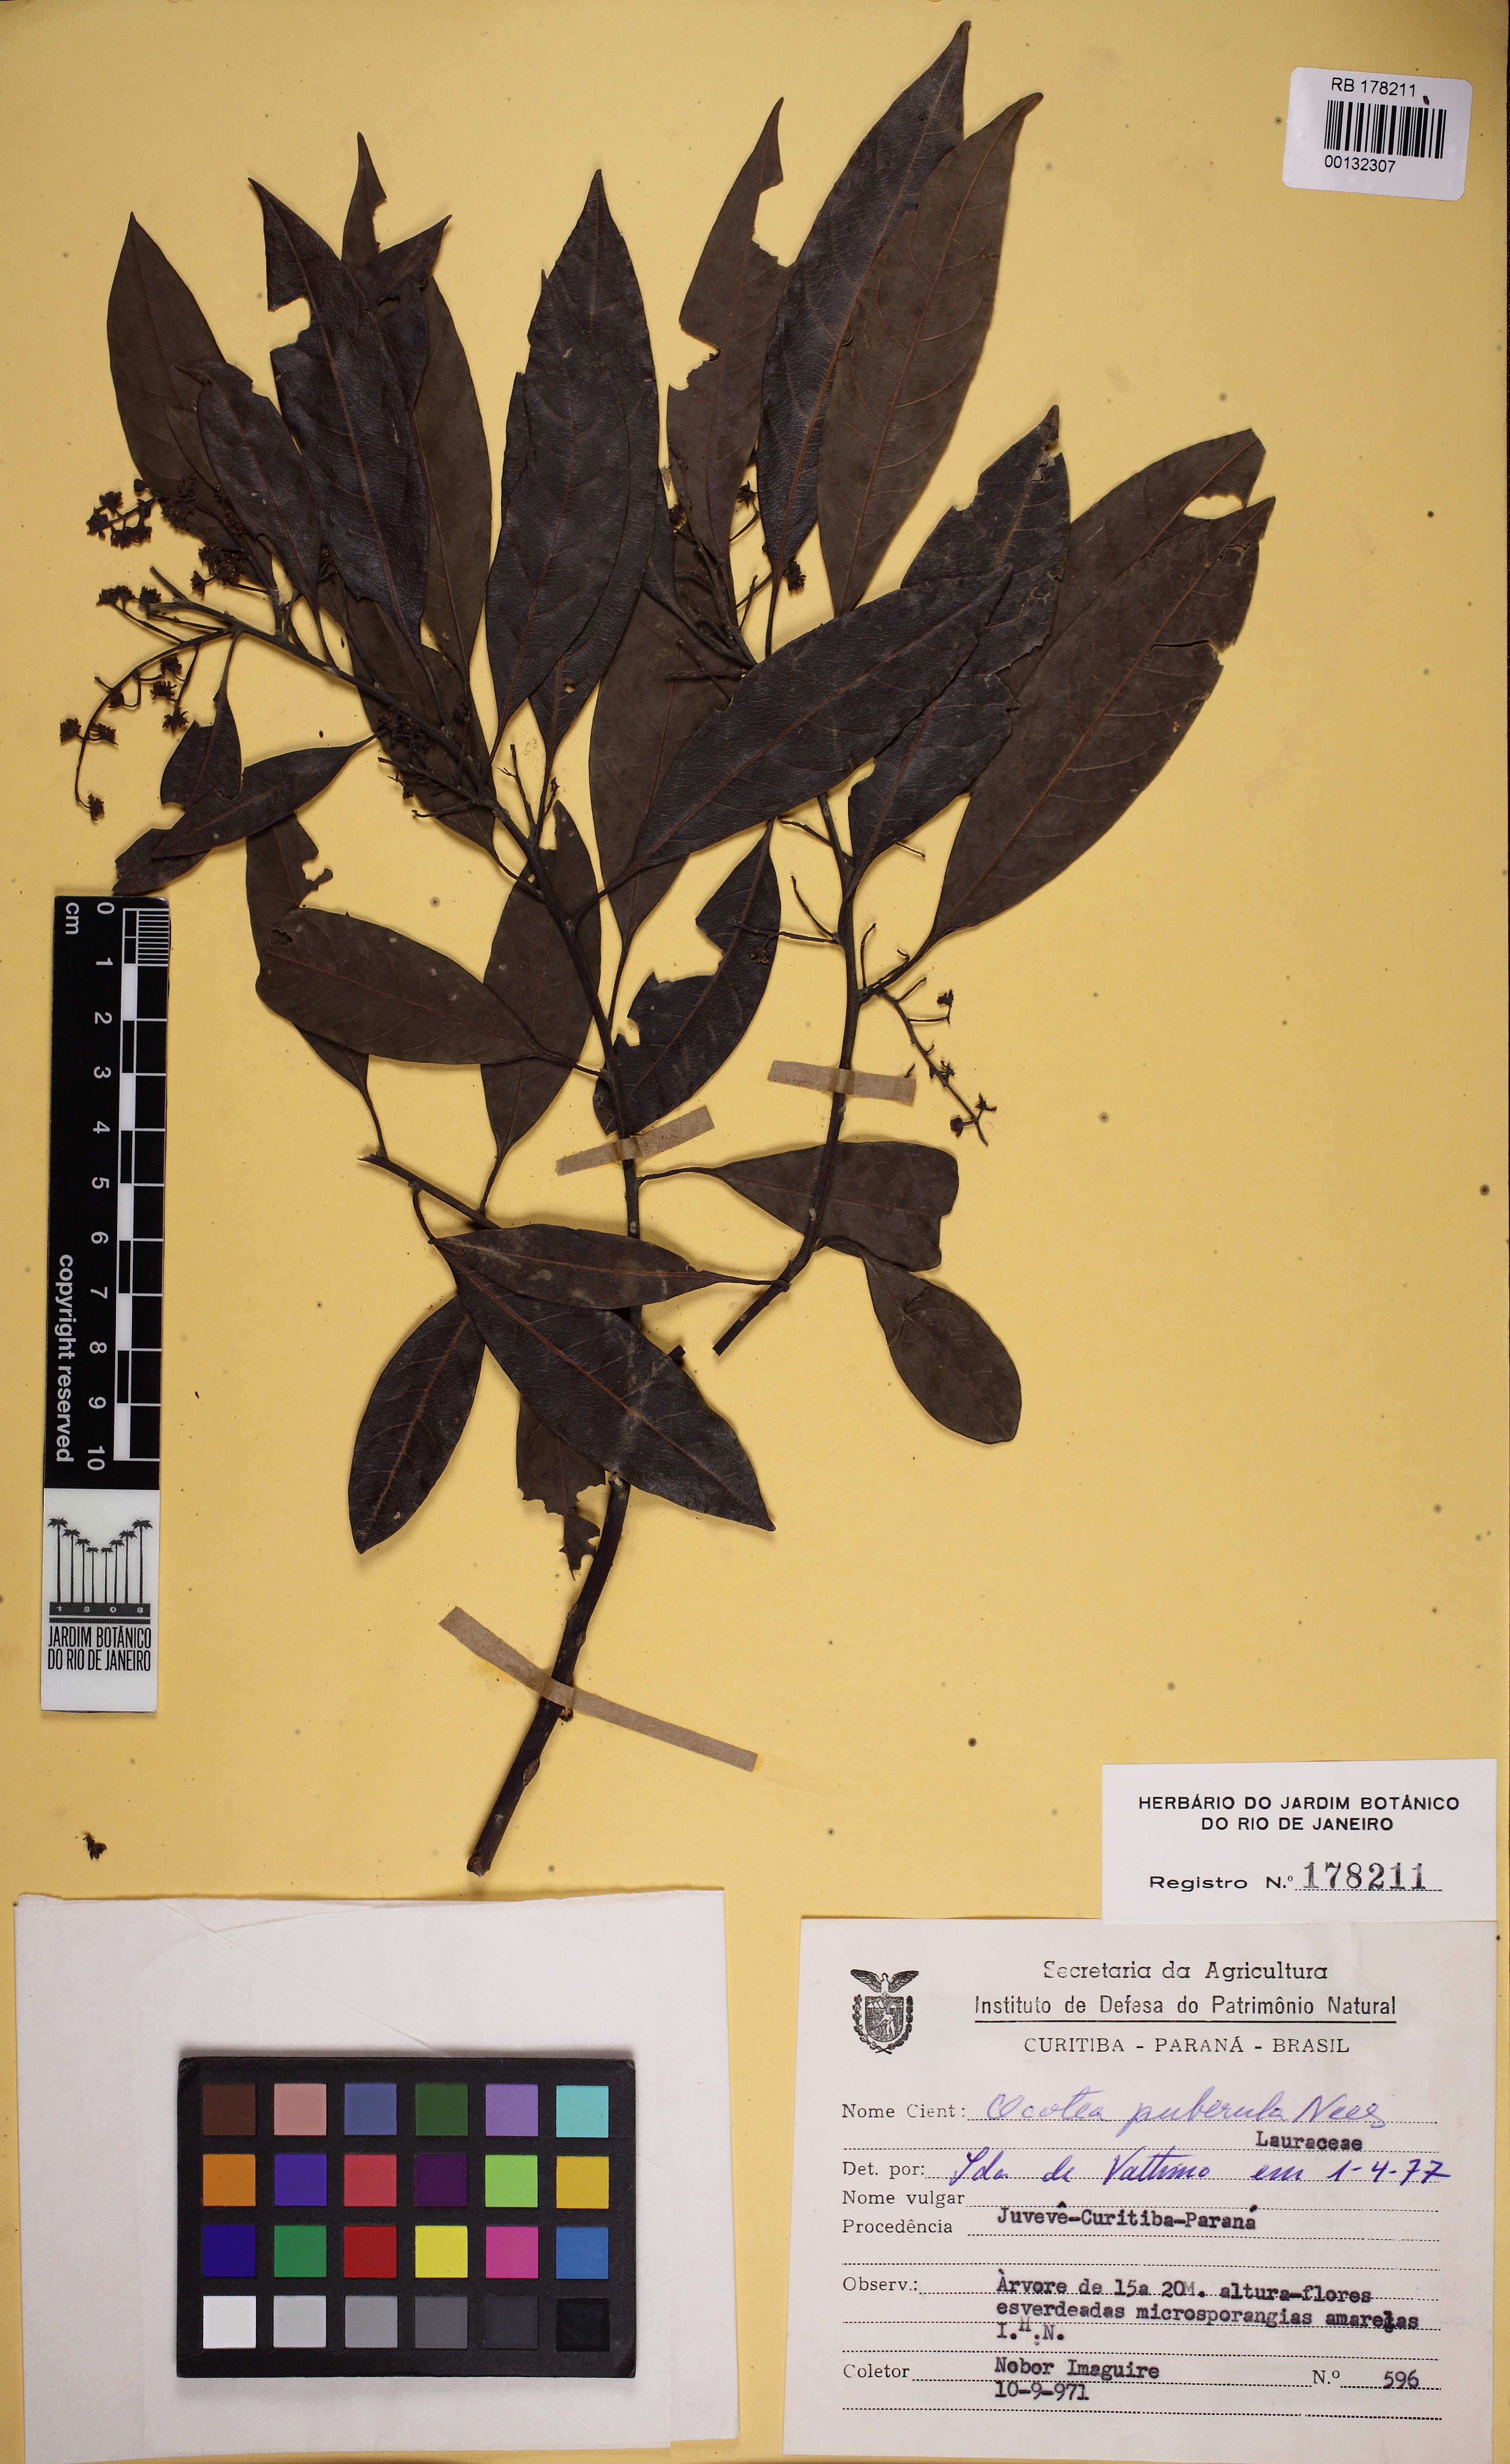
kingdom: Plantae
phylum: Tracheophyta
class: Magnoliopsida
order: Laurales
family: Lauraceae
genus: Ocotea
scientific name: Ocotea puberula
